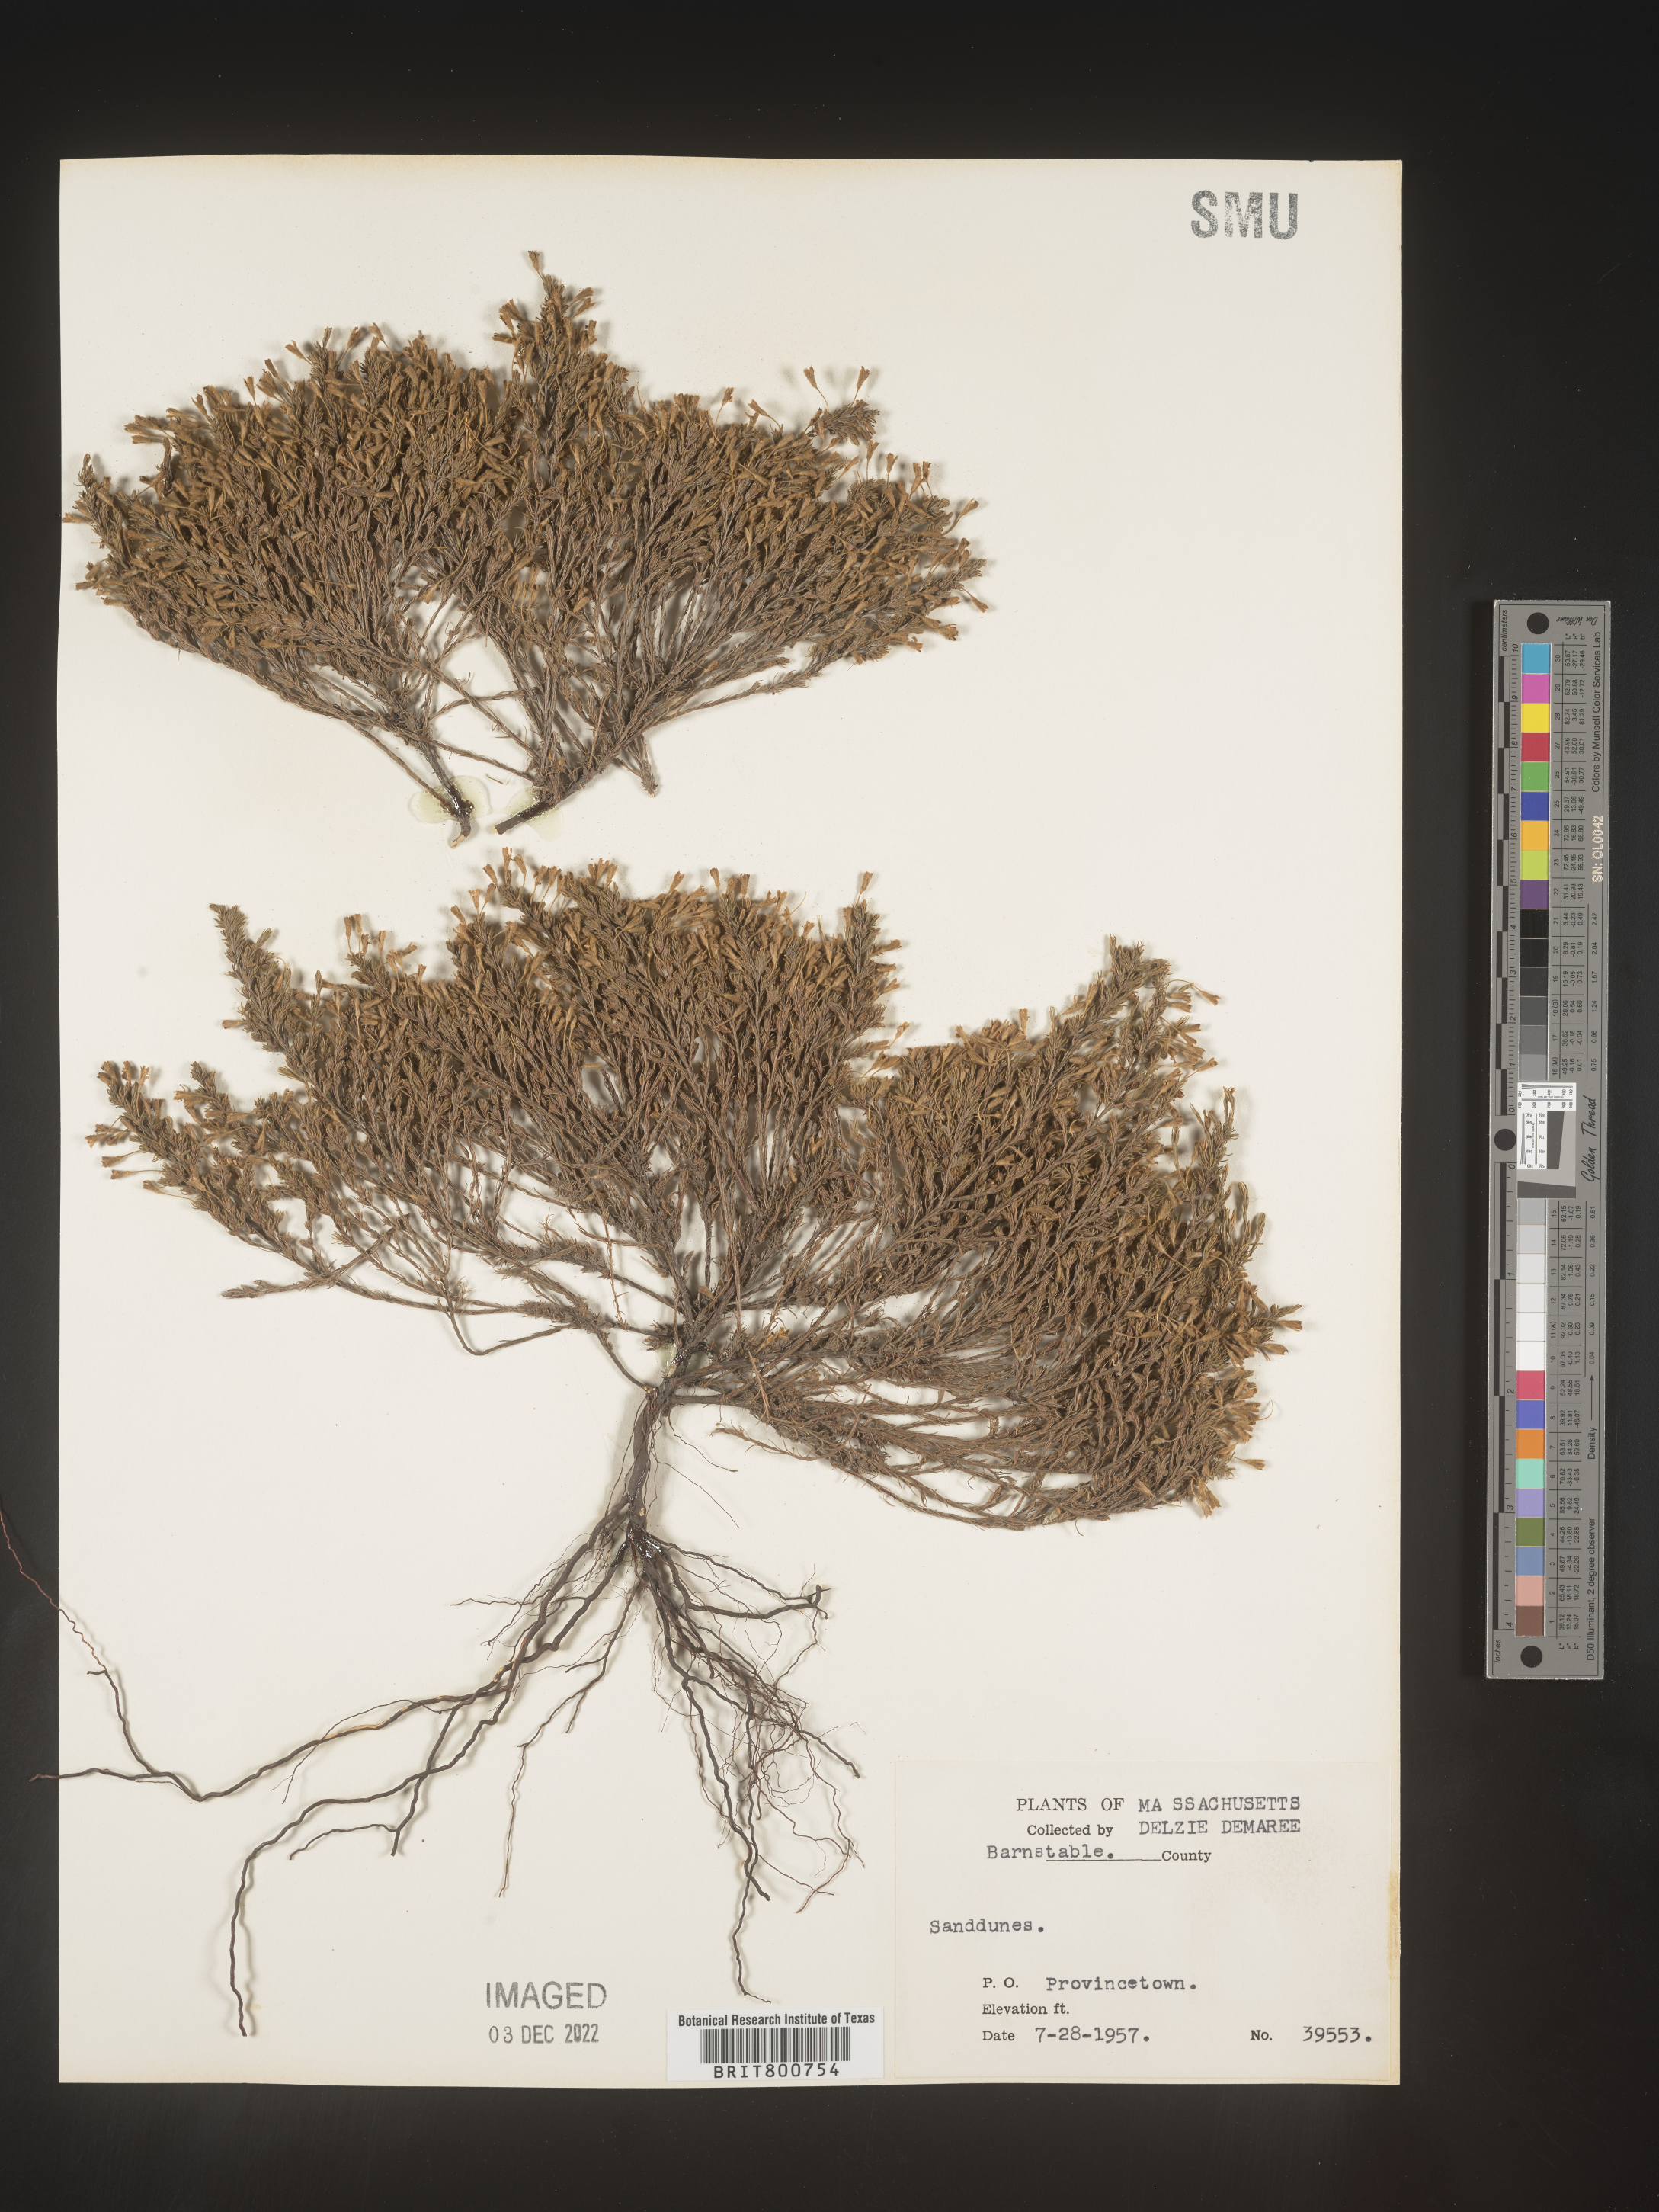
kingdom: Plantae
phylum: Tracheophyta
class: Magnoliopsida
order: Malvales
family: Cistaceae
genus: Hudsonia
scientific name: Hudsonia ericoides
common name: Golden-heather
